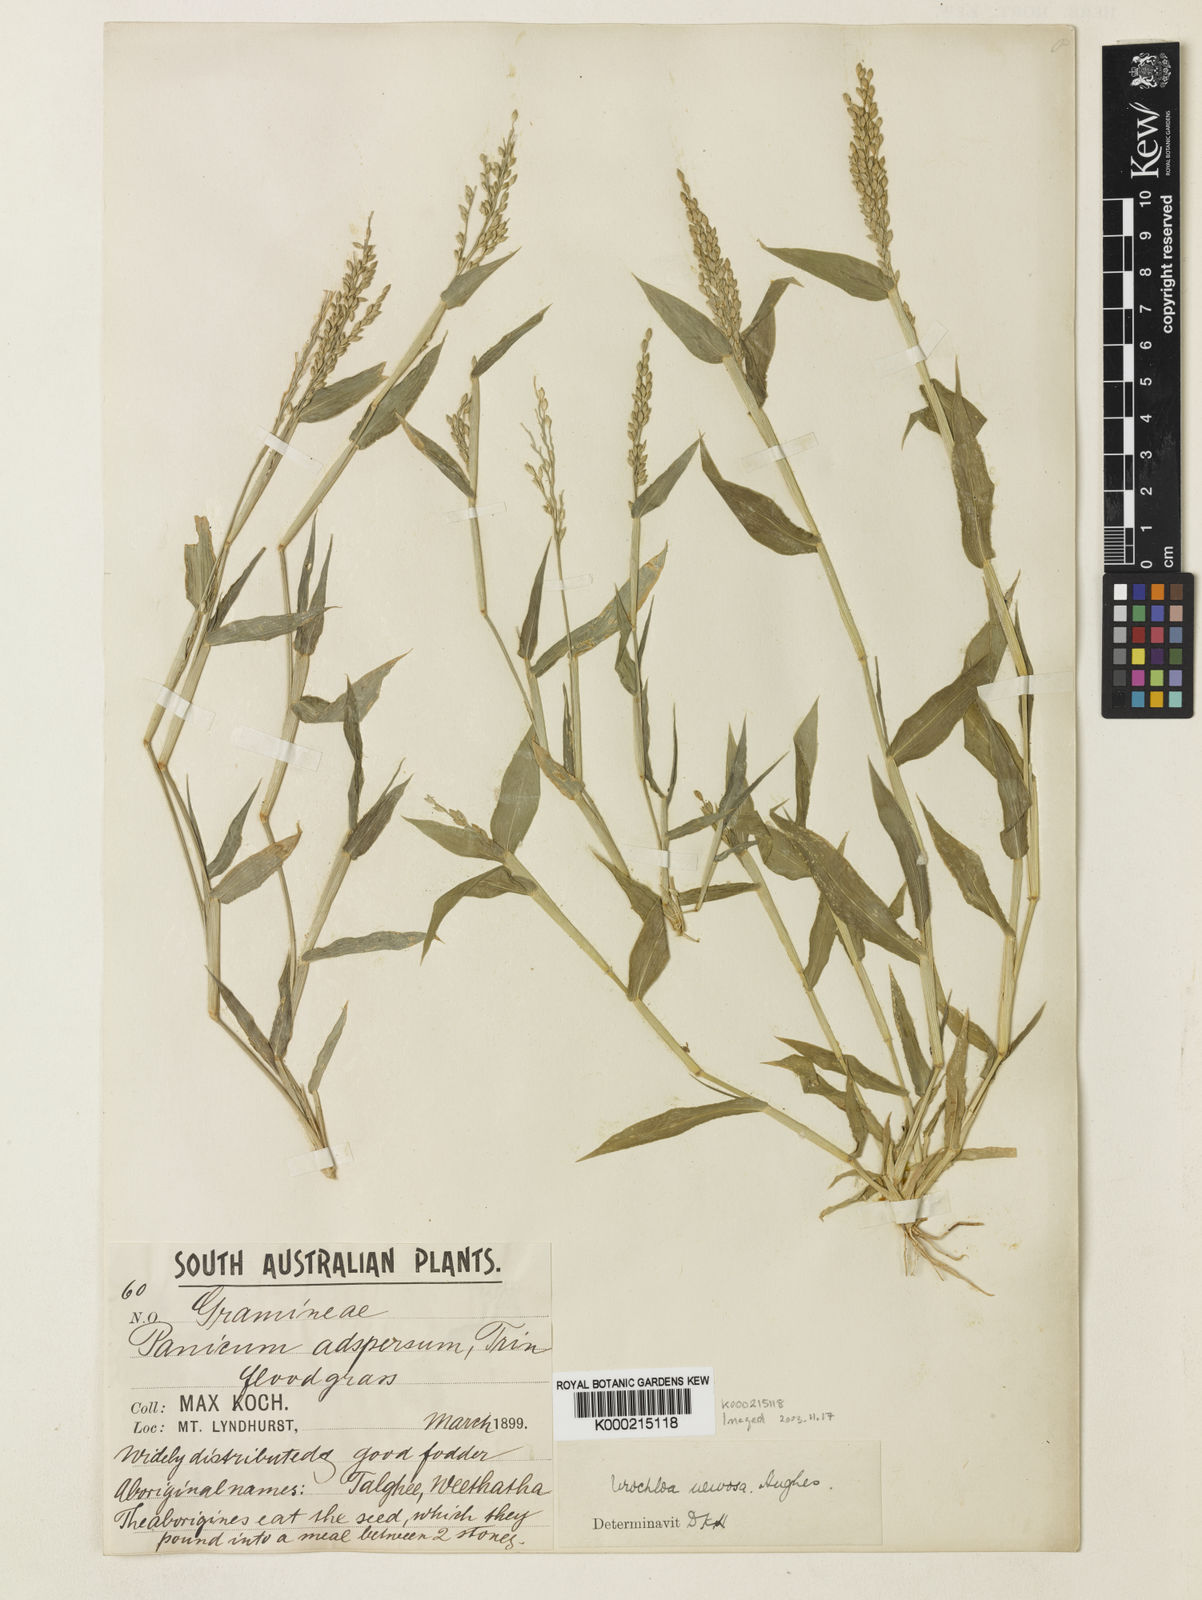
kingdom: Plantae
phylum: Tracheophyta
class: Liliopsida
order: Poales
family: Poaceae
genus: Urochloa
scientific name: Urochloa praetervisa
